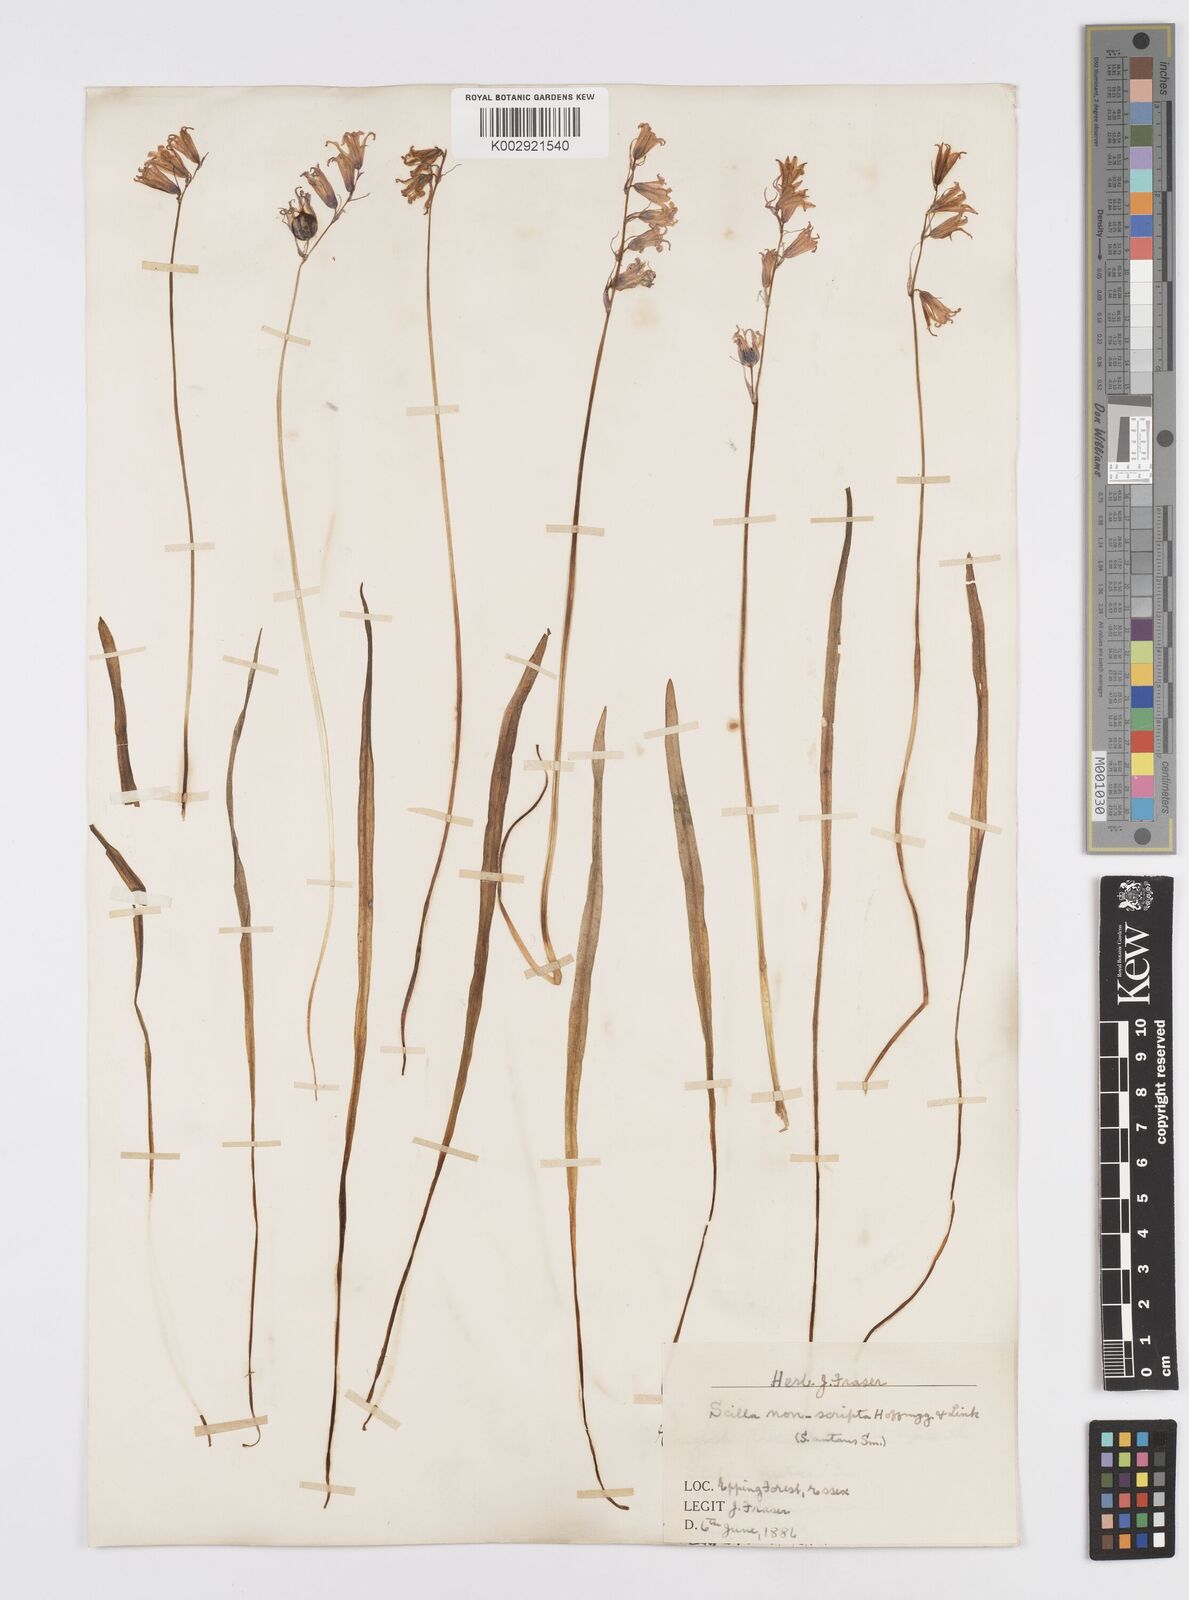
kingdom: Plantae
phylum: Tracheophyta
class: Liliopsida
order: Asparagales
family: Asparagaceae
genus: Hyacinthoides
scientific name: Hyacinthoides non-scripta
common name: Bluebell
